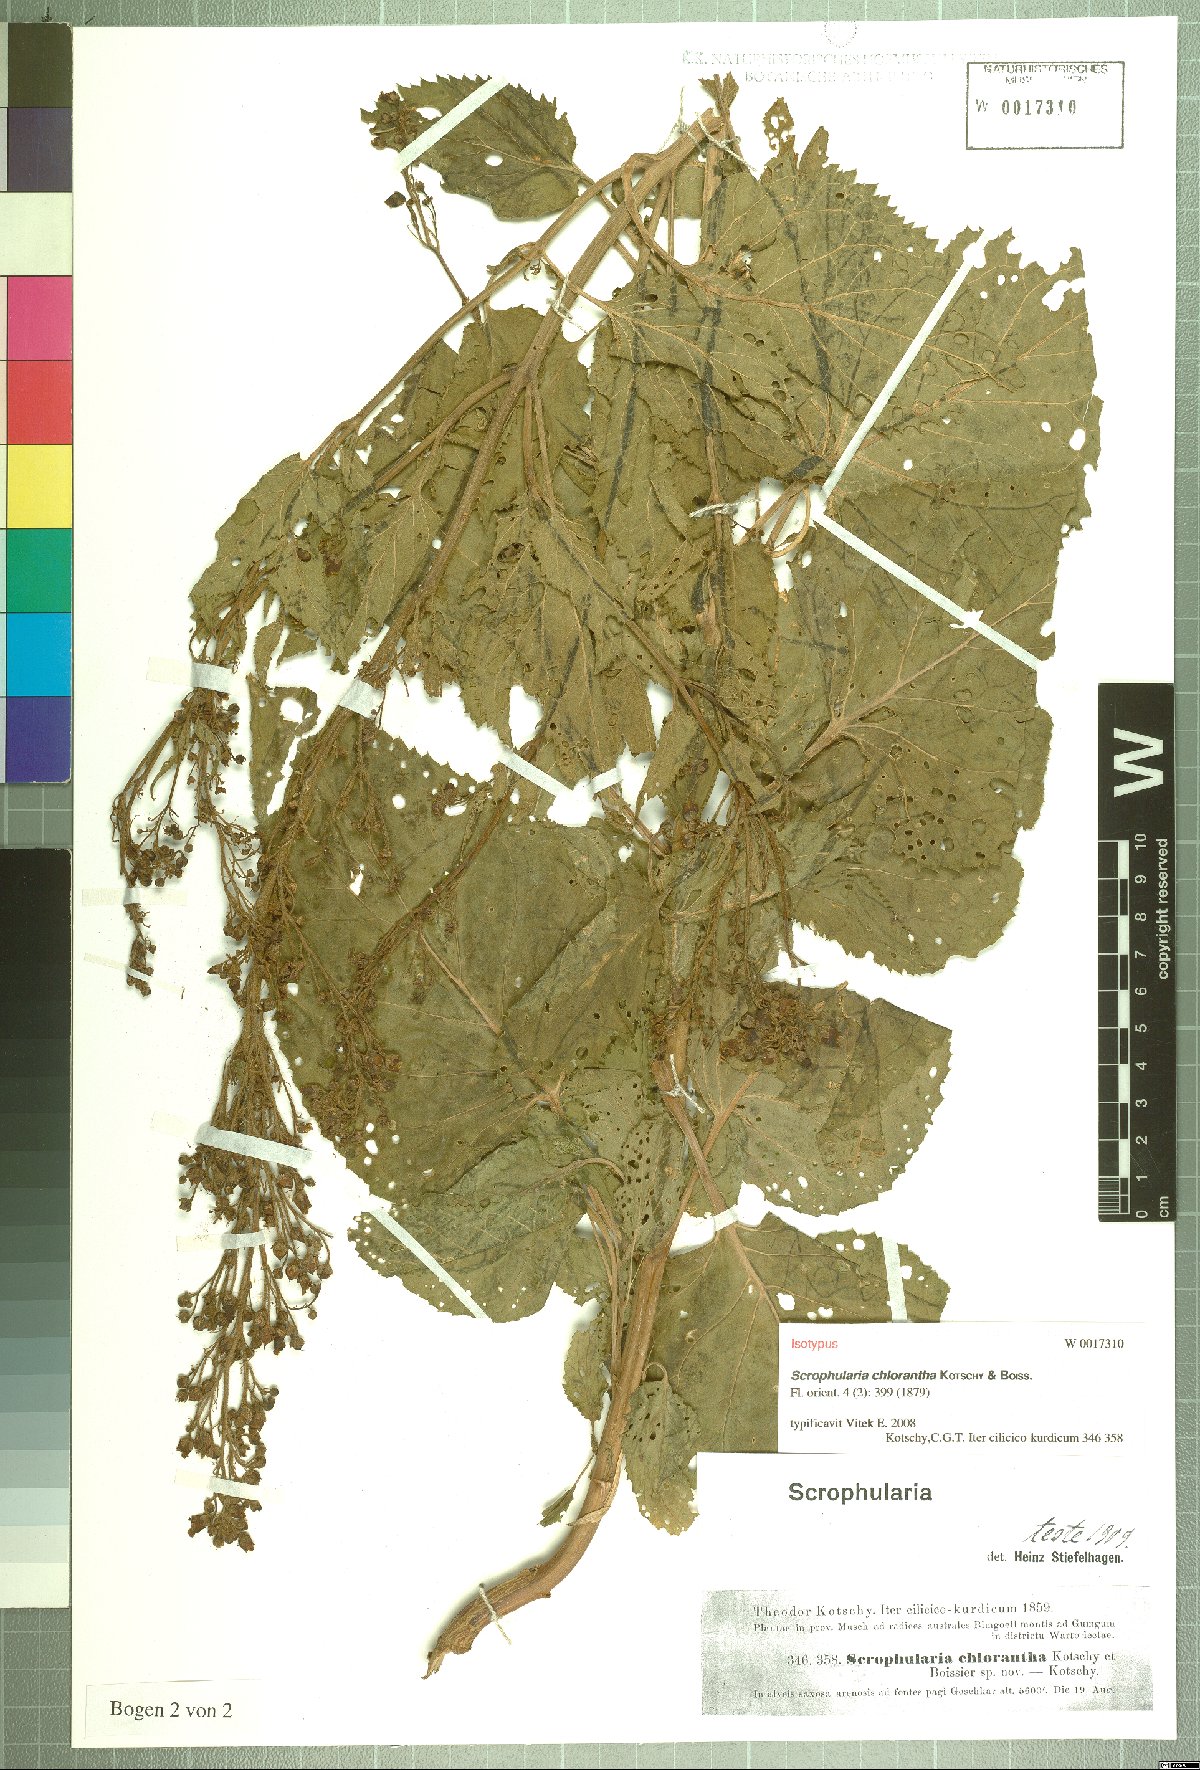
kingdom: Plantae
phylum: Tracheophyta
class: Magnoliopsida
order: Lamiales
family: Scrophulariaceae
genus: Scrophularia
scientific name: Scrophularia chlorantha
